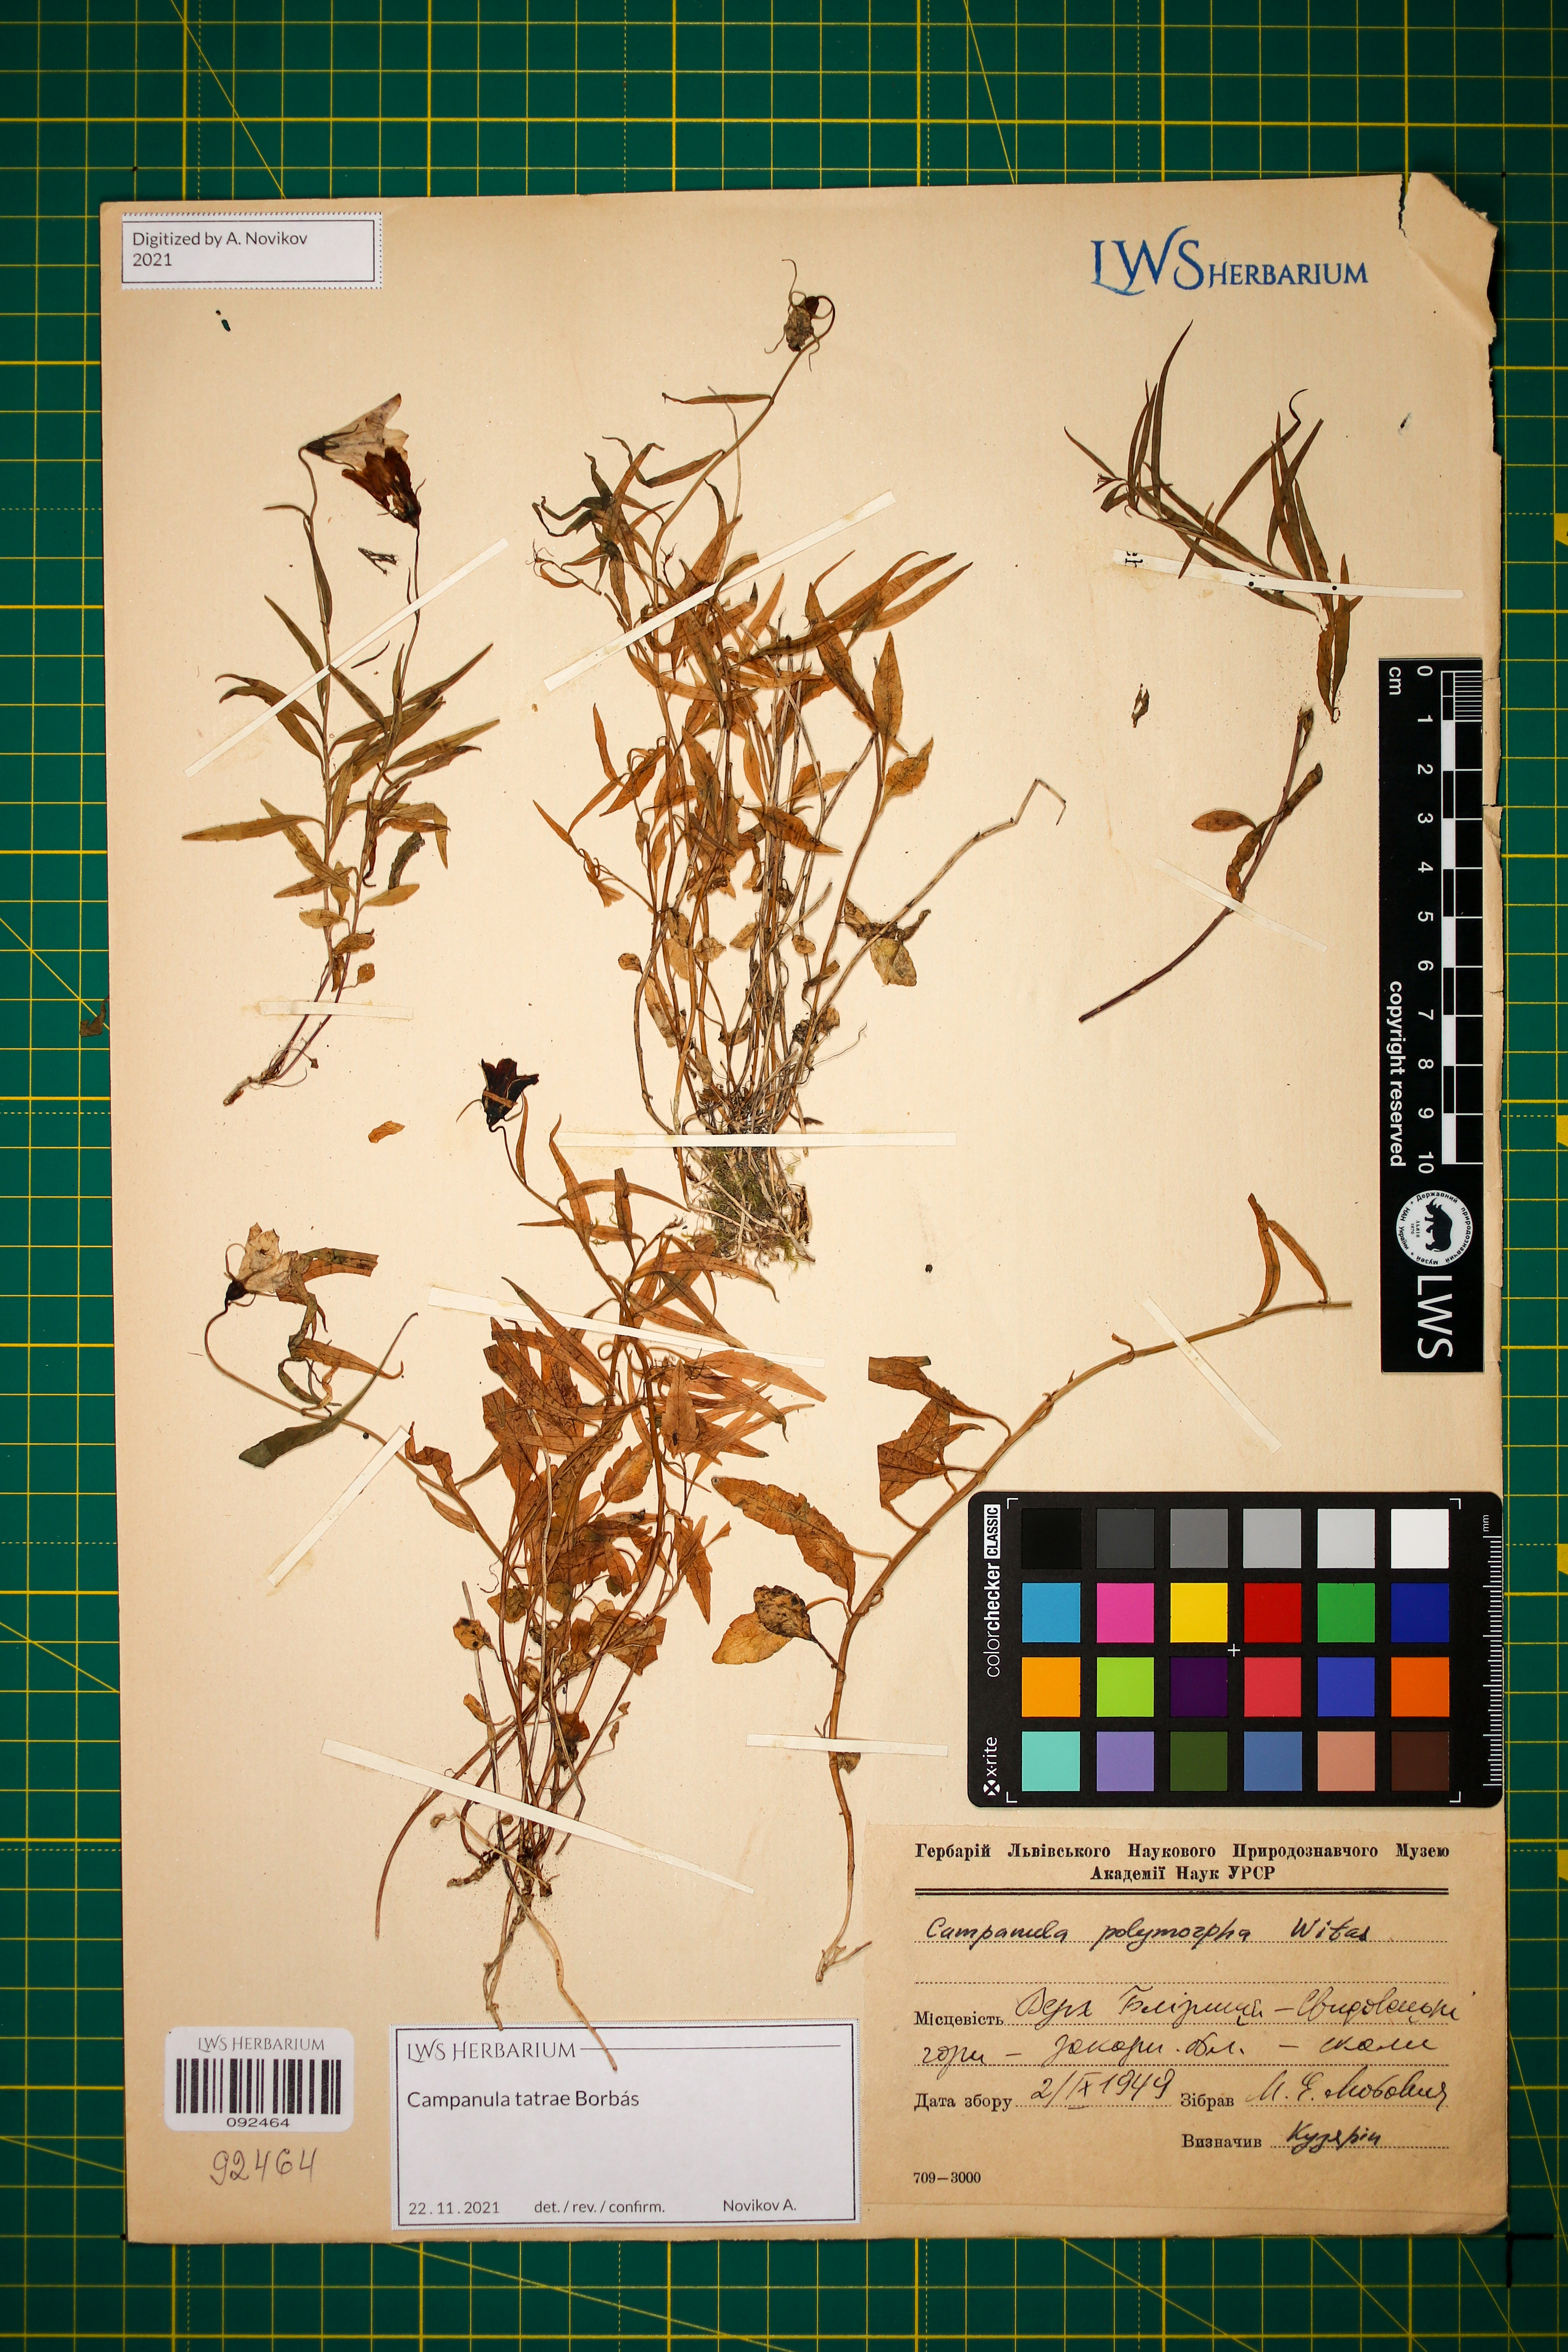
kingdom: Plantae
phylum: Tracheophyta
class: Magnoliopsida
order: Asterales
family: Campanulaceae
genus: Campanula
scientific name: Campanula tatrae
